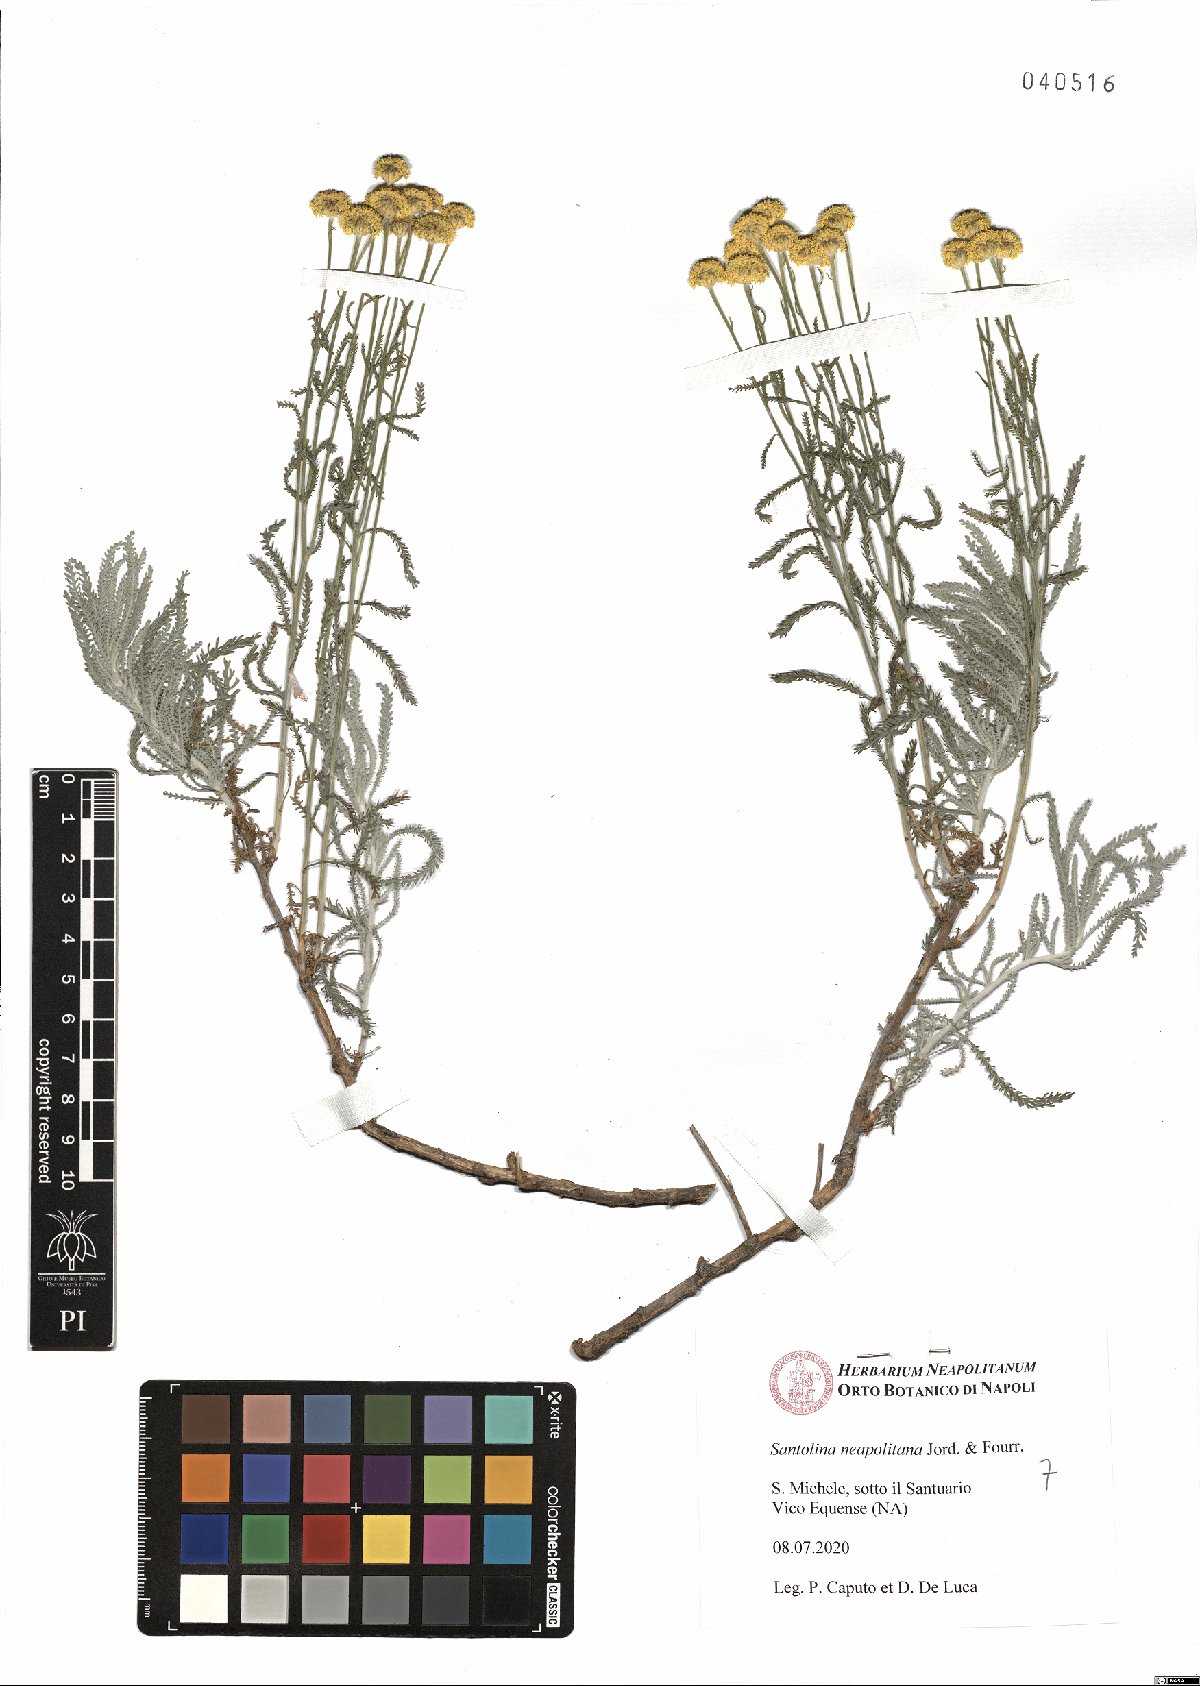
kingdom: Plantae
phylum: Tracheophyta
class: Magnoliopsida
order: Asterales
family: Asteraceae
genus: Santolina
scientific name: Santolina neapolitana
